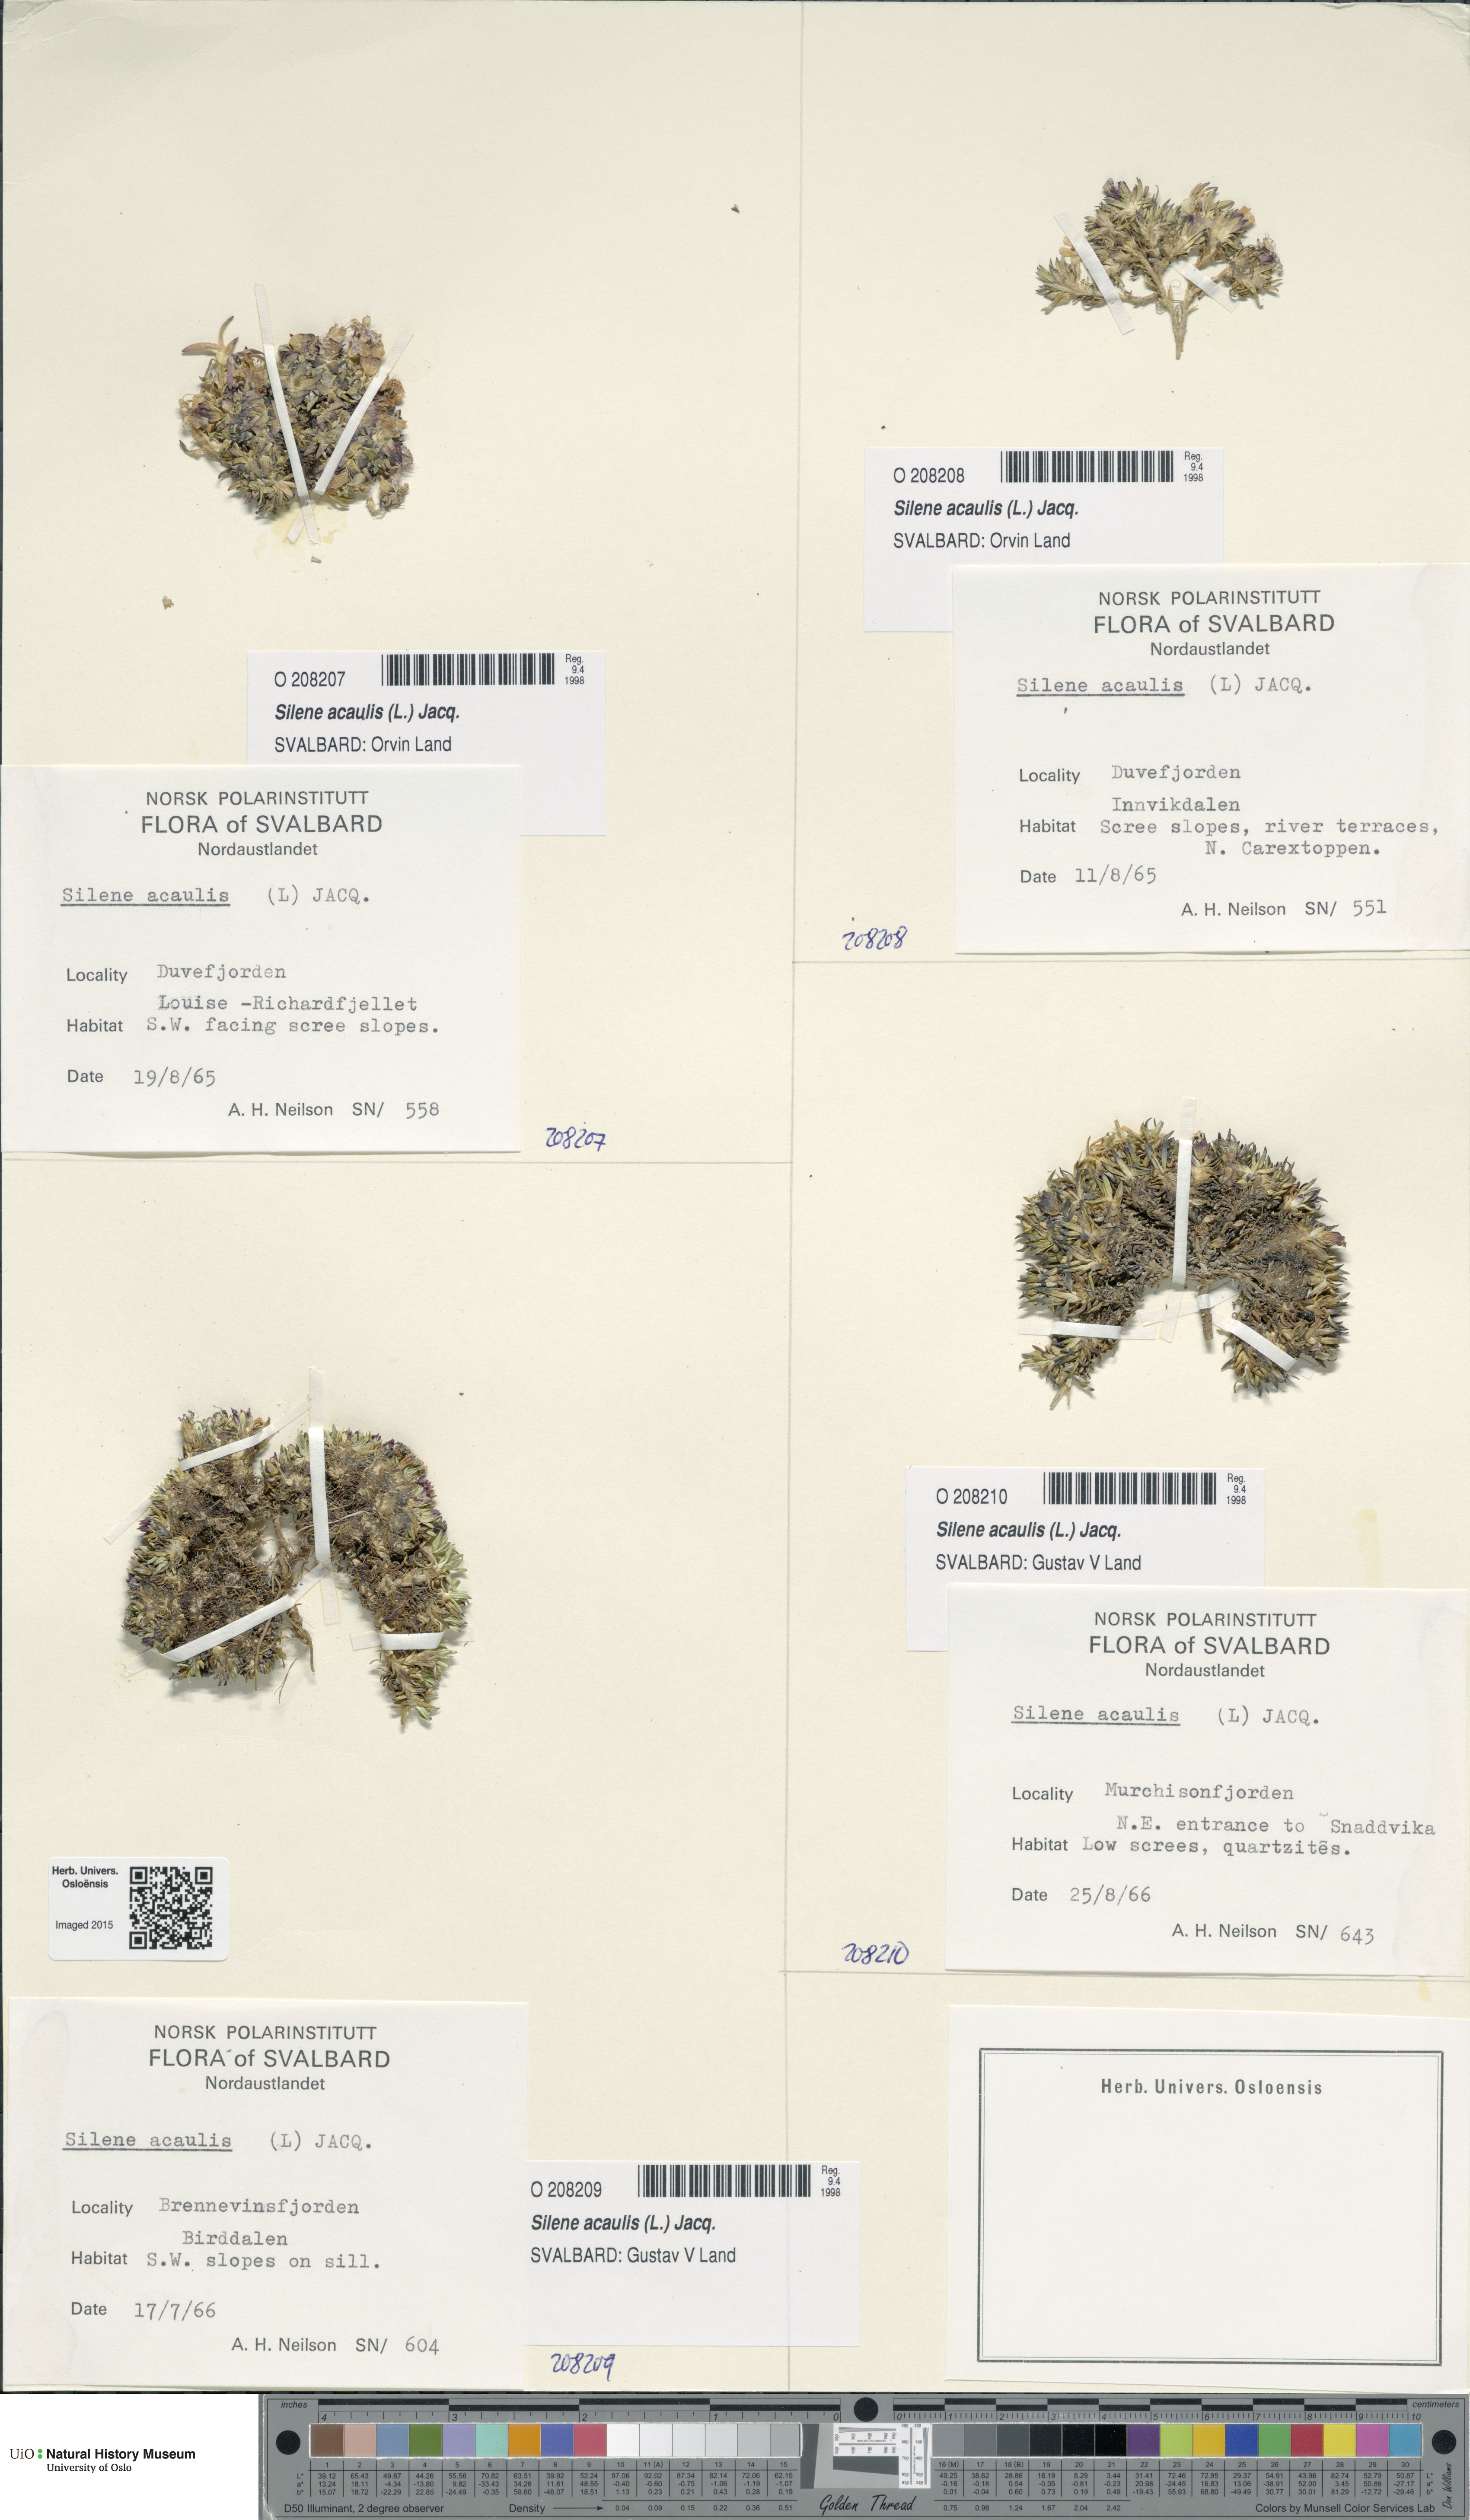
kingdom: Plantae
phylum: Tracheophyta
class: Magnoliopsida
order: Caryophyllales
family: Caryophyllaceae
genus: Silene
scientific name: Silene acaulis
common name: Moss campion
